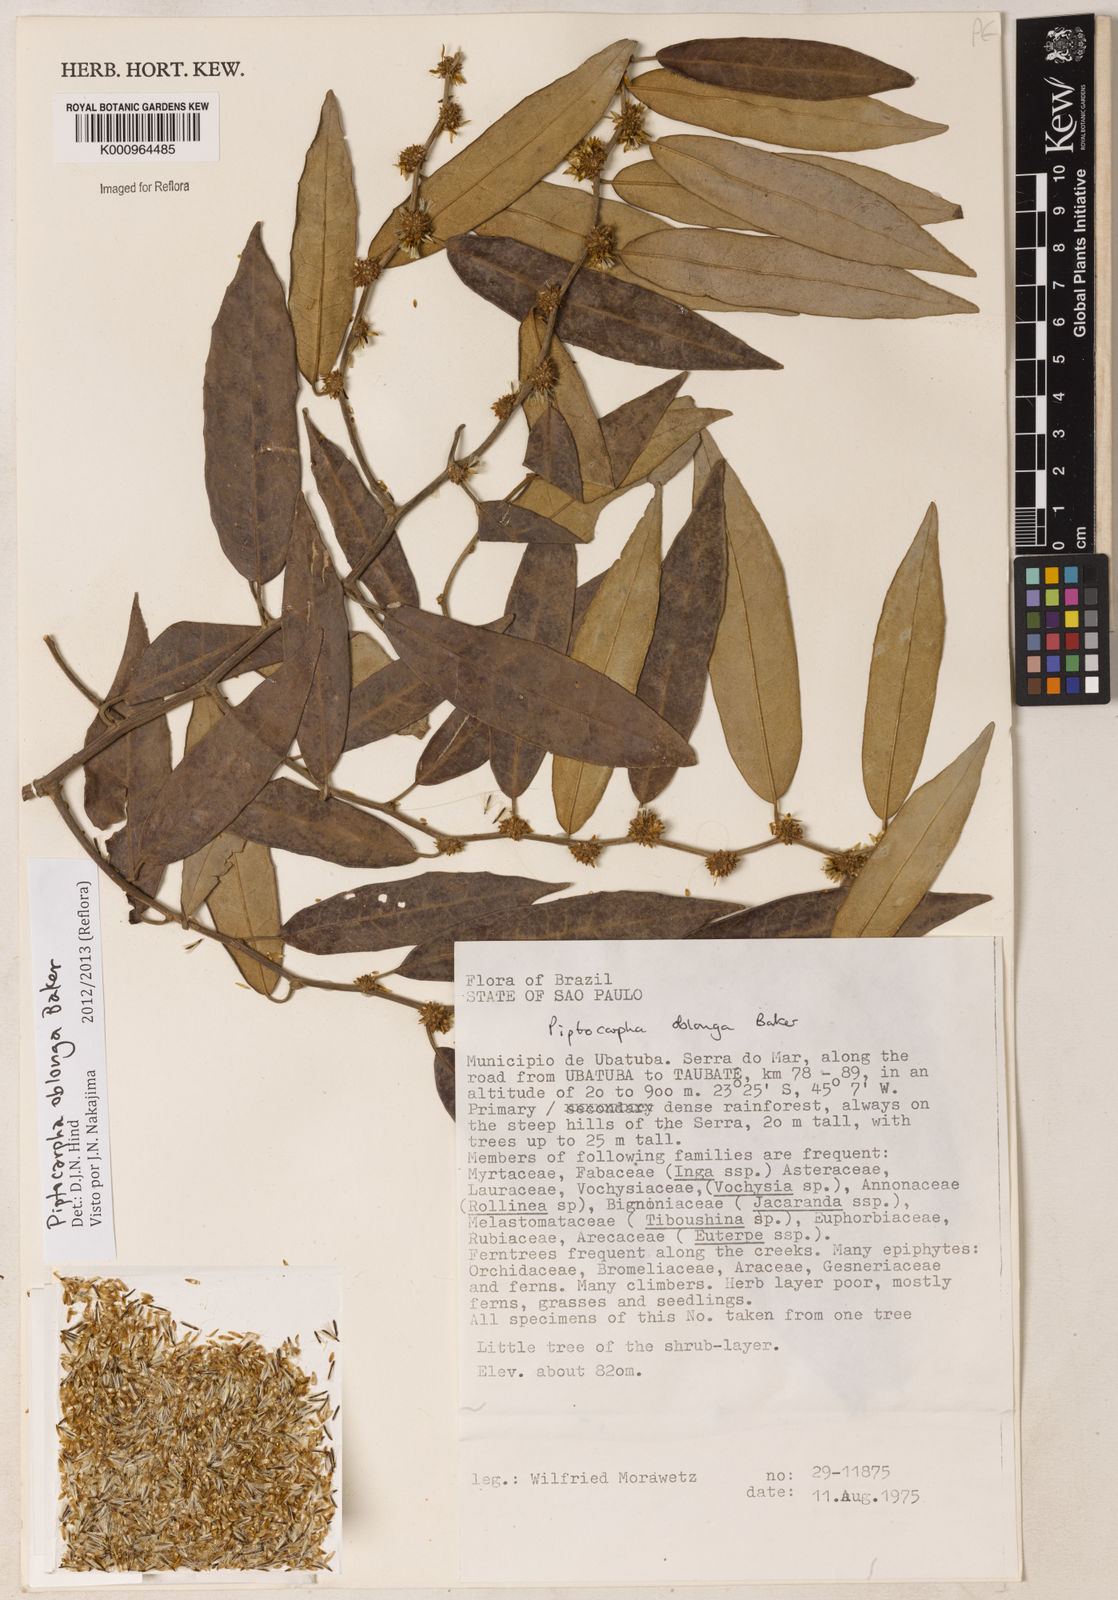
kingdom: Plantae
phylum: Tracheophyta
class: Magnoliopsida
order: Asterales
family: Asteraceae
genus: Piptocarpha
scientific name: Piptocarpha oblonga
